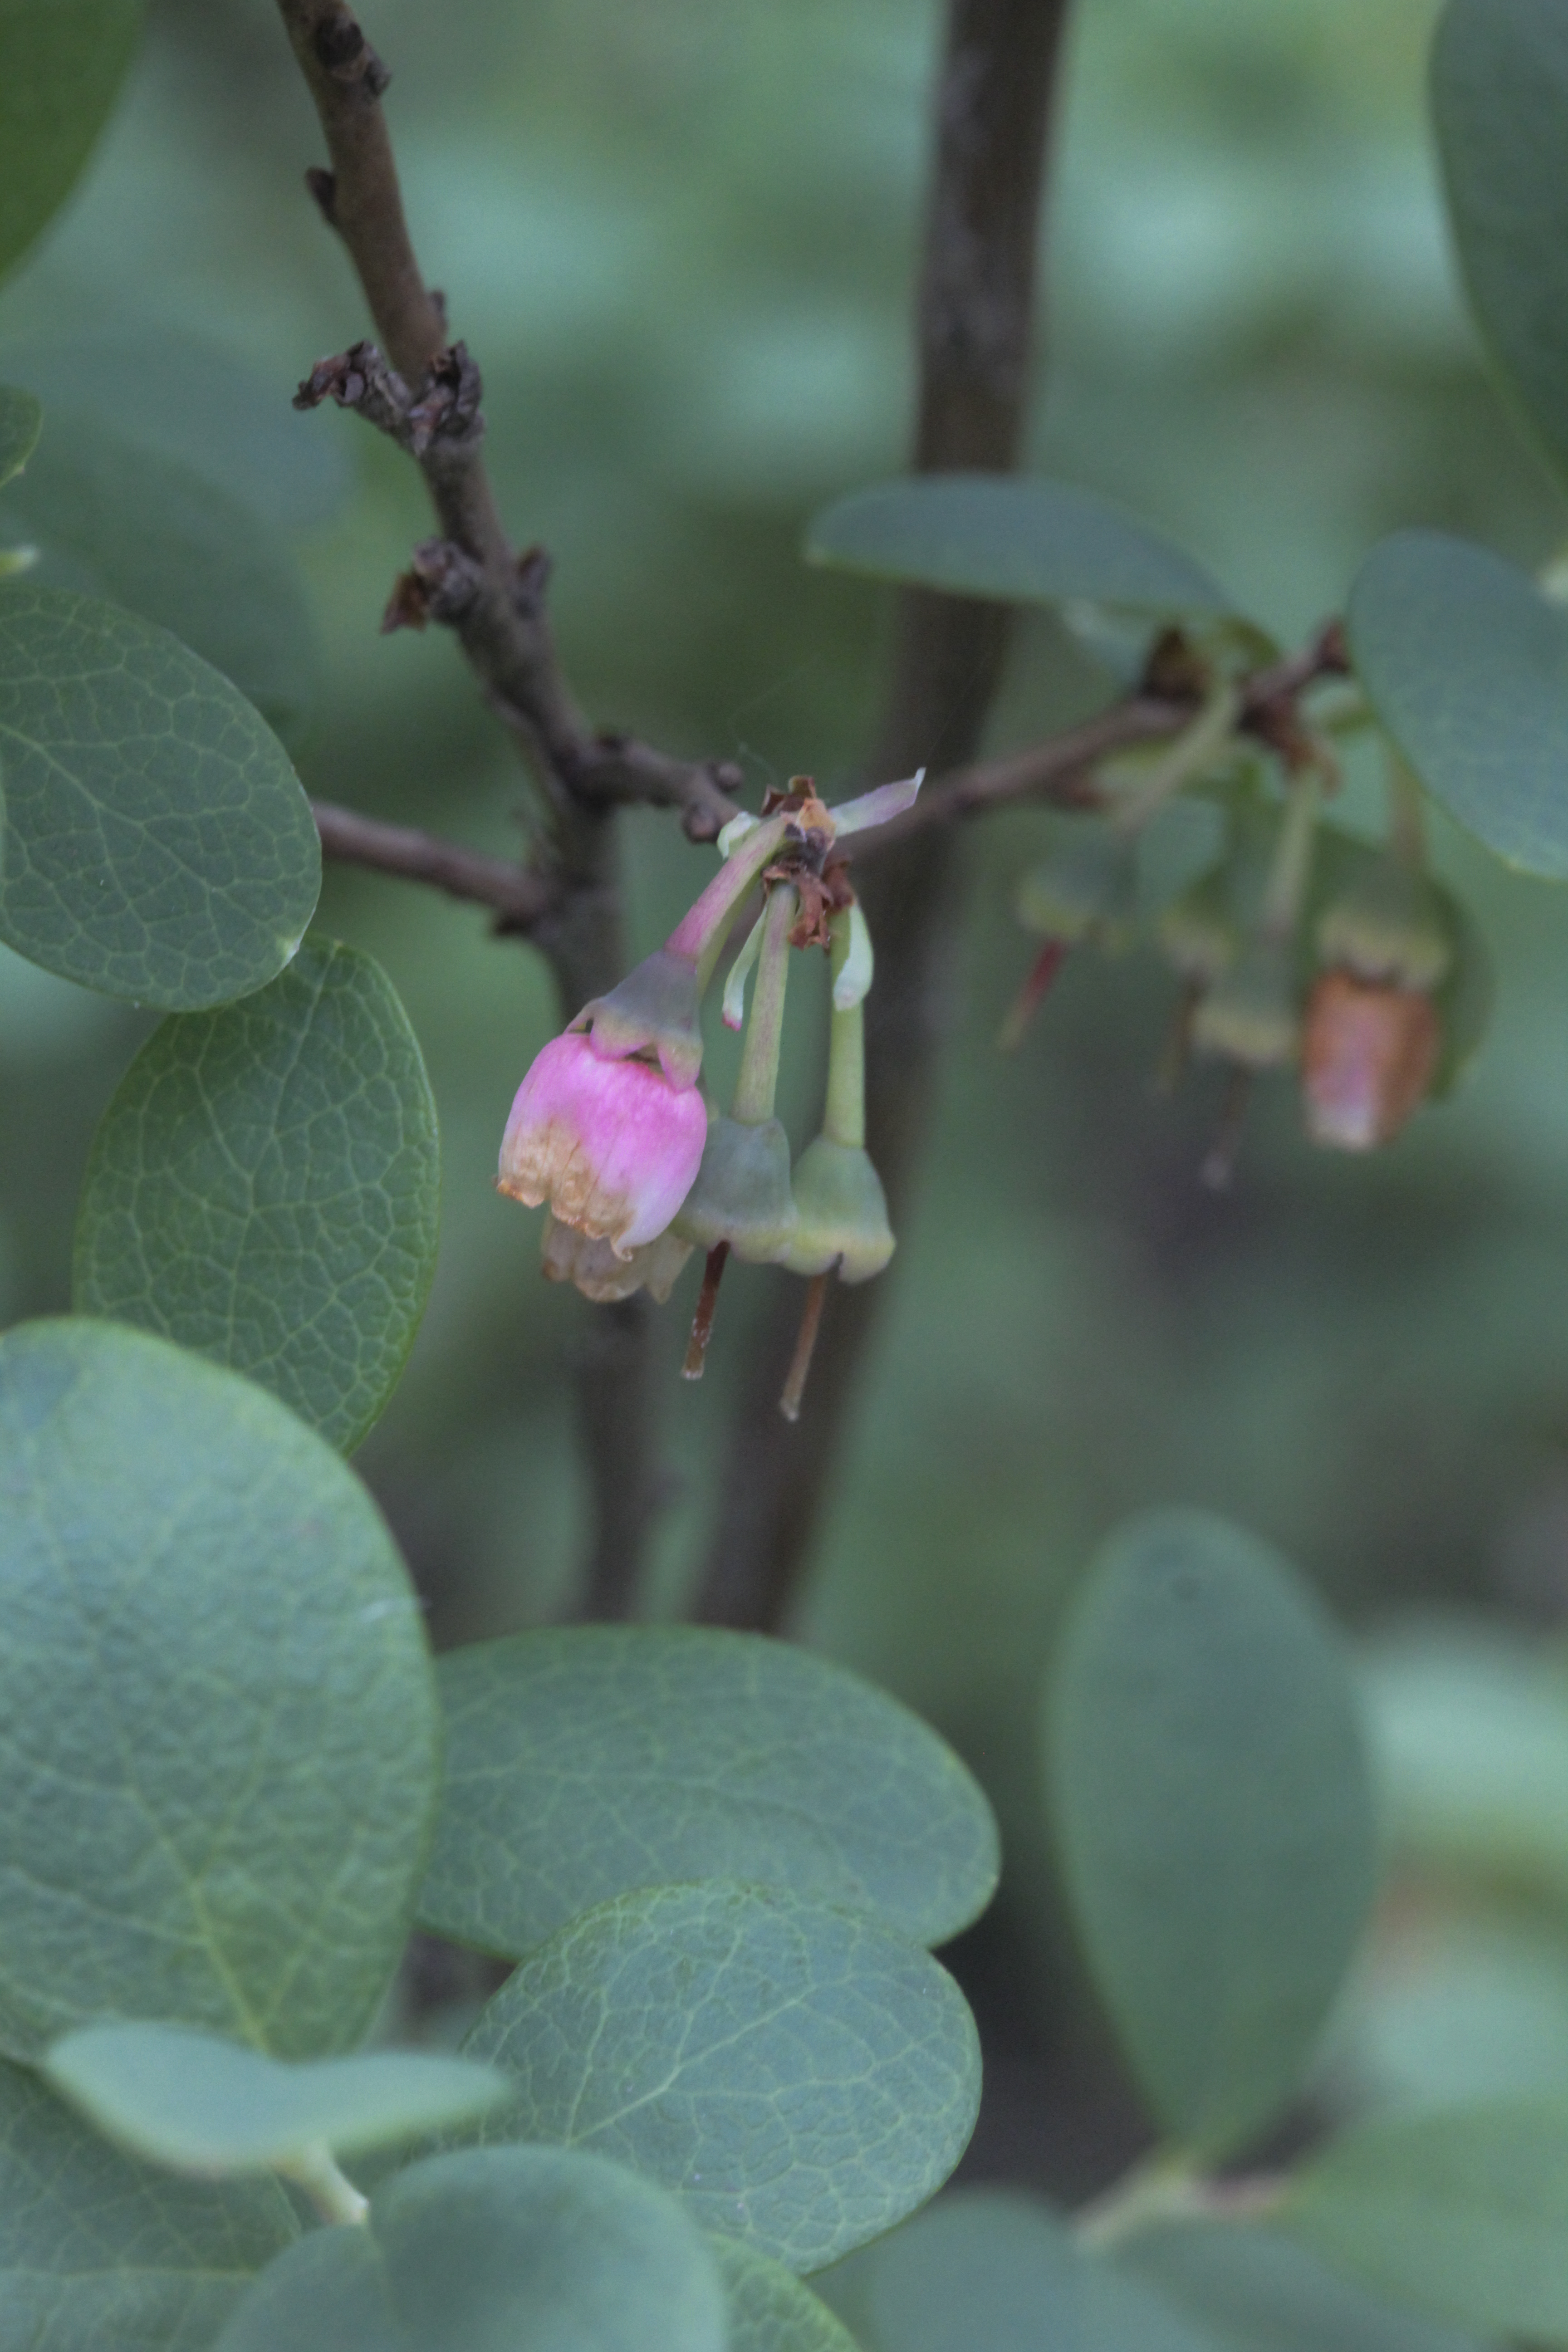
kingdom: Plantae
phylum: Tracheophyta
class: Magnoliopsida
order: Ericales
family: Ericaceae
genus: Vaccinium
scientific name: Vaccinium uliginosum
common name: Bog bilberry
